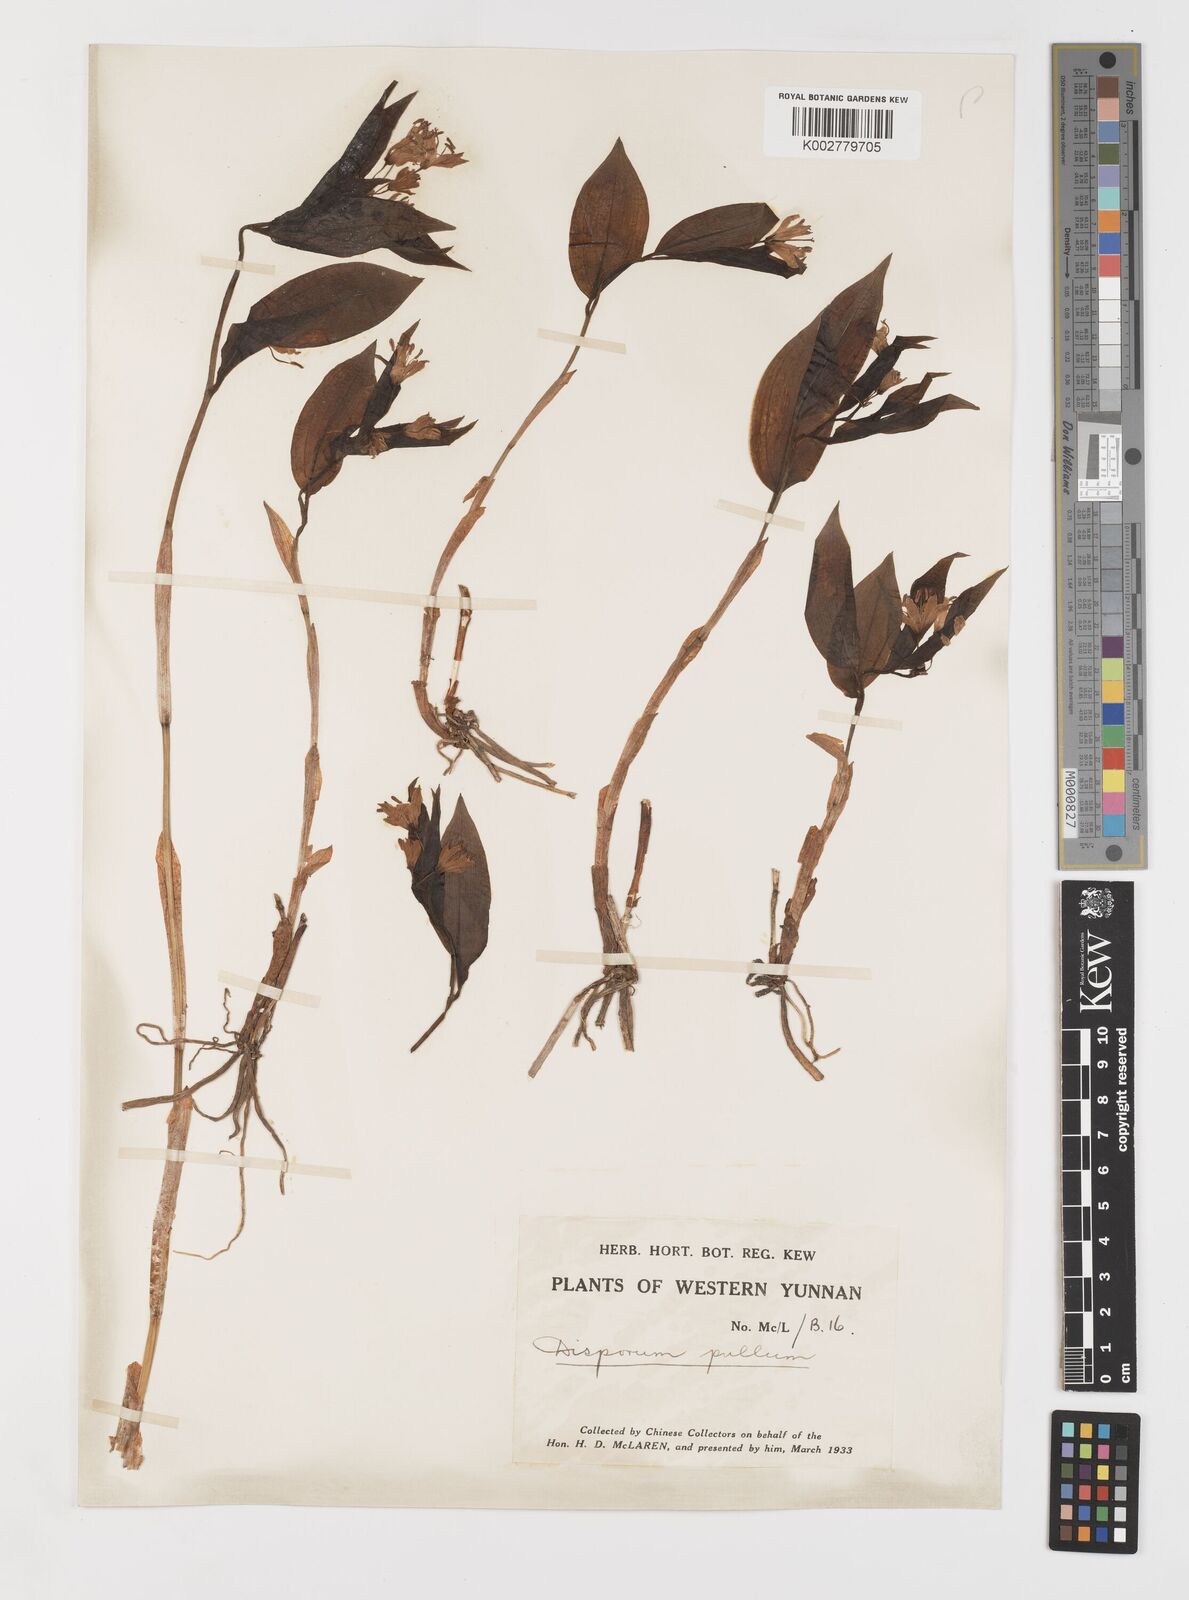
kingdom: Plantae
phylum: Tracheophyta
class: Liliopsida
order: Liliales
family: Colchicaceae
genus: Disporum
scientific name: Disporum cantoniense
